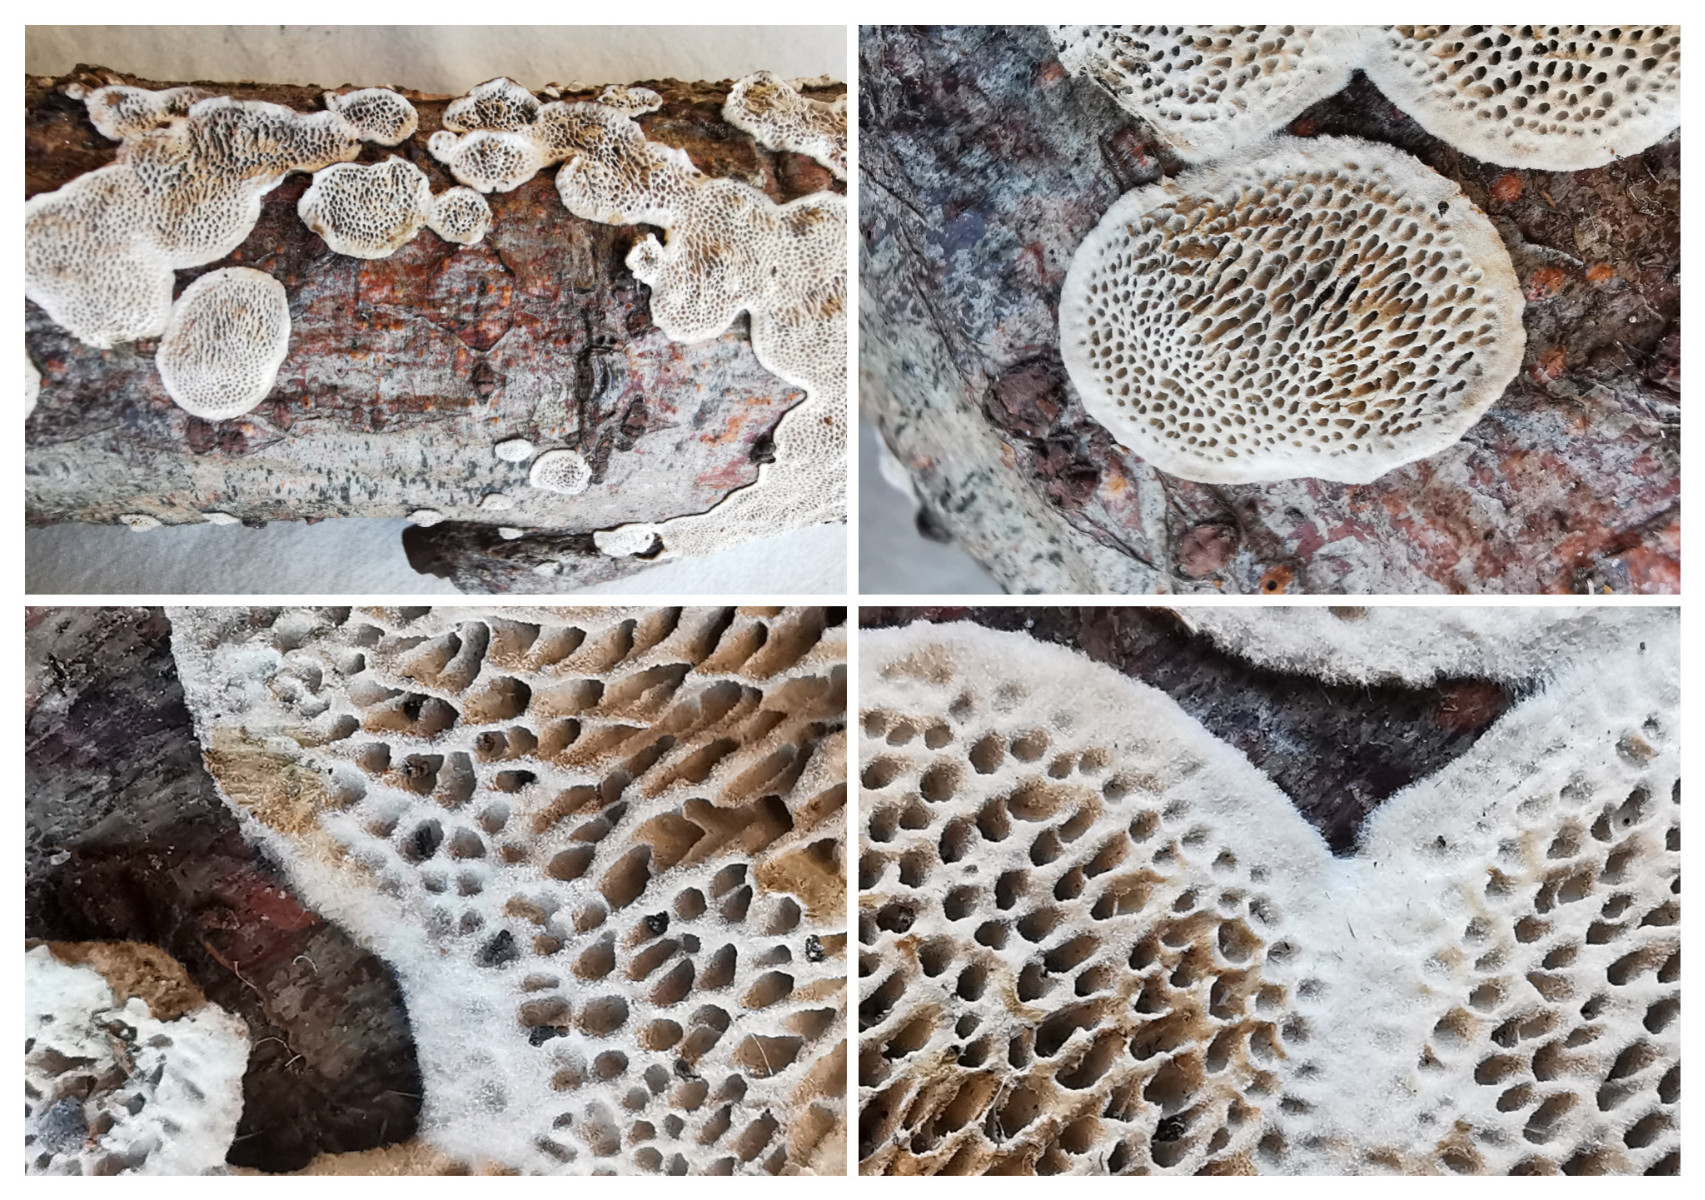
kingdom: Fungi
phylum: Basidiomycota
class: Agaricomycetes
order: Polyporales
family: Polyporaceae
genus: Podofomes
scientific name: Podofomes mollis
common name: blød begporesvamp
